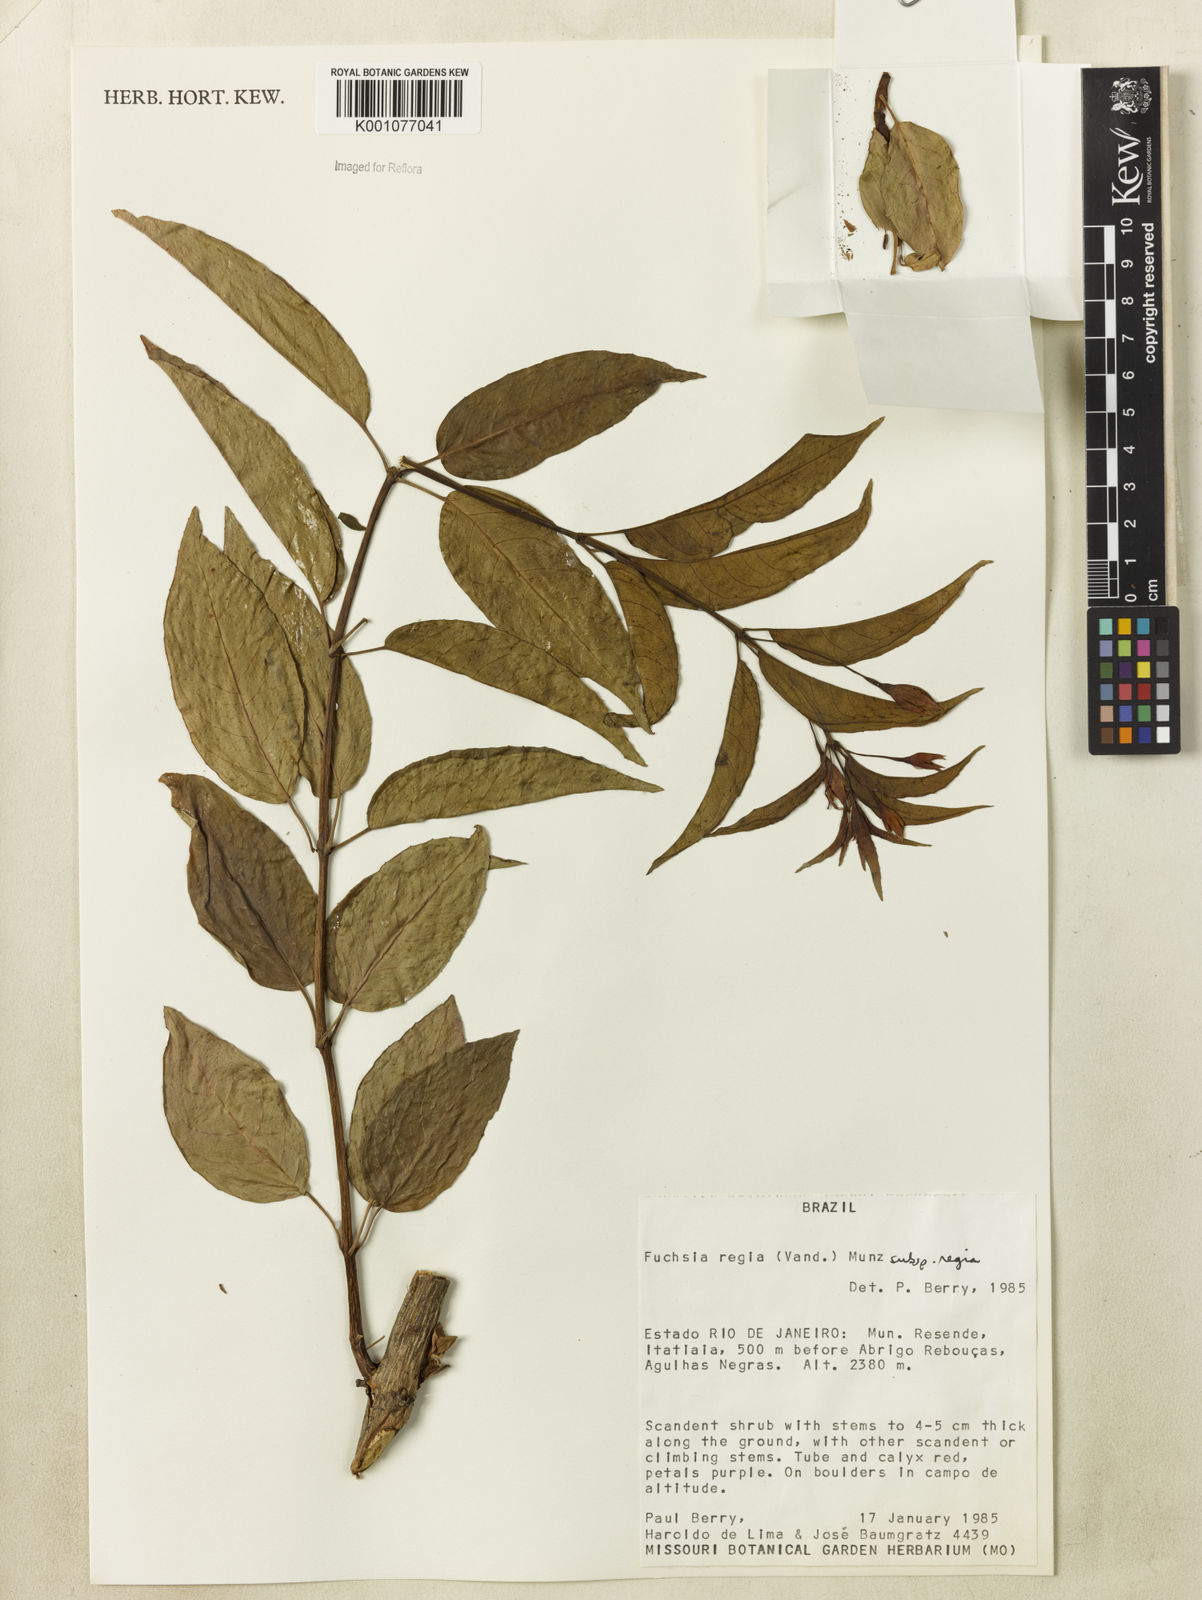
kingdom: Plantae
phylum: Tracheophyta
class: Magnoliopsida
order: Myrtales
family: Onagraceae
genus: Fuchsia
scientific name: Fuchsia regia
